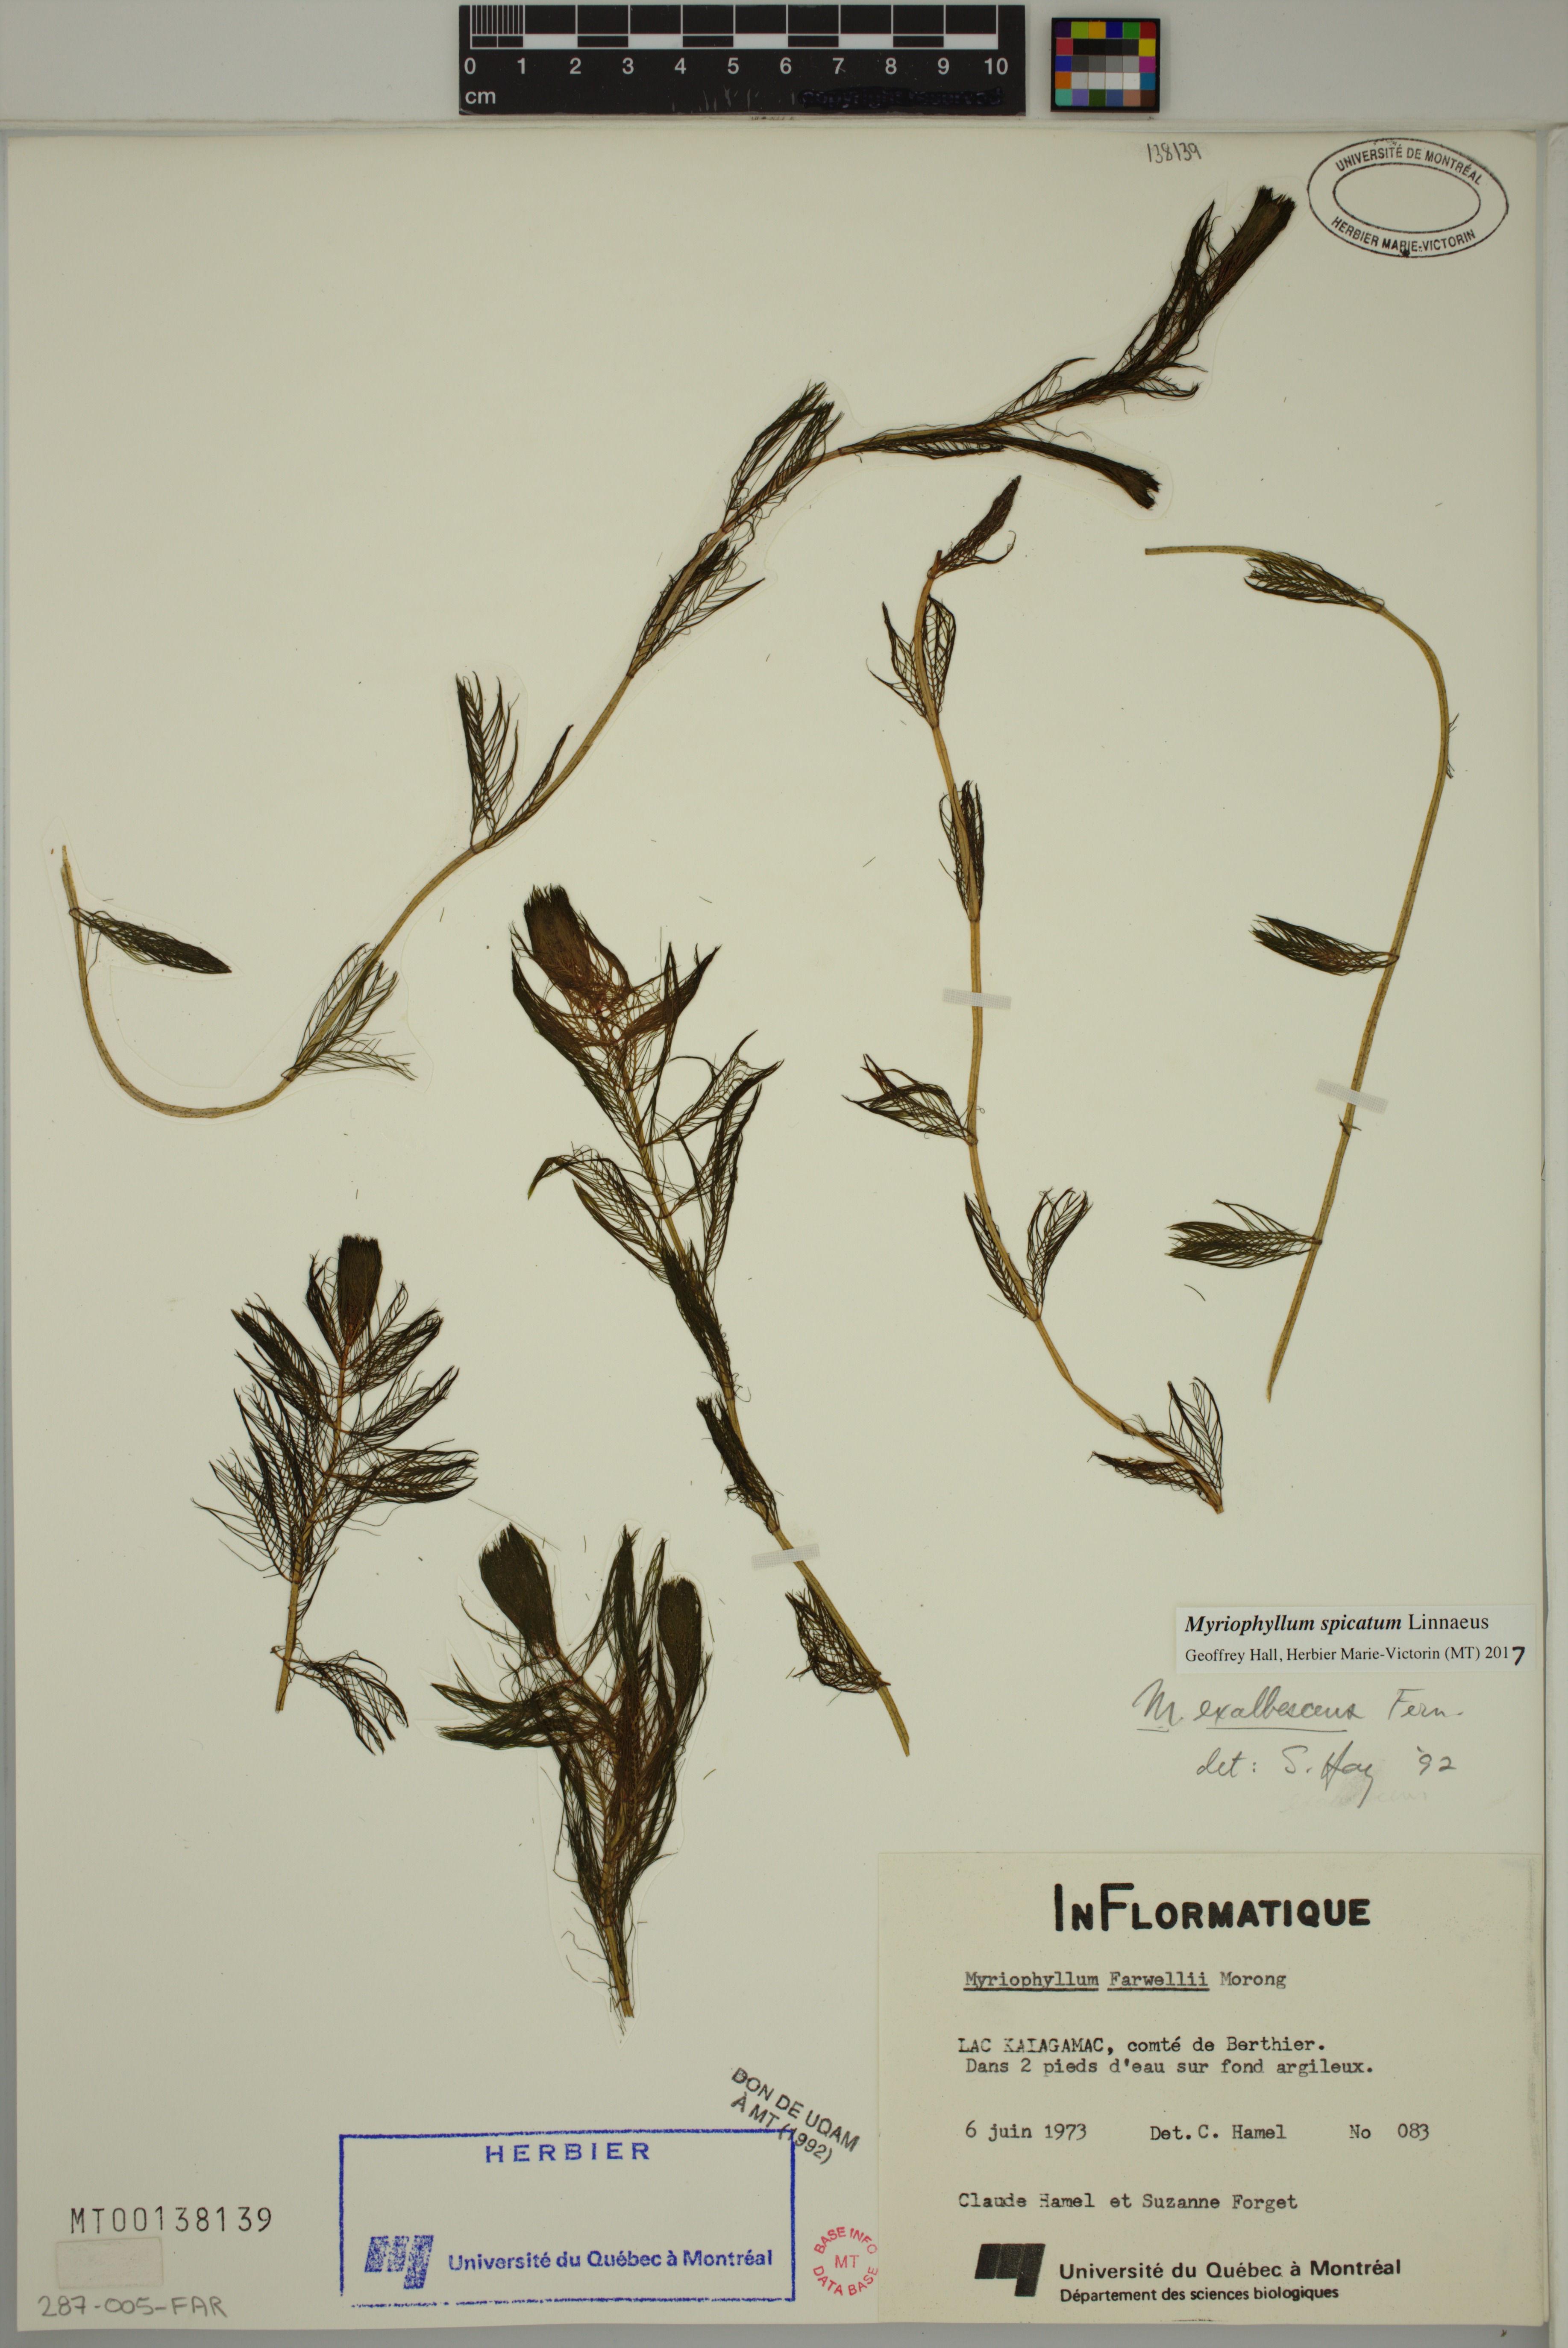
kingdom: Plantae
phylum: Tracheophyta
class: Magnoliopsida
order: Saxifragales
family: Haloragaceae
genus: Myriophyllum
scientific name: Myriophyllum spicatum
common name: Spiked water-milfoil
